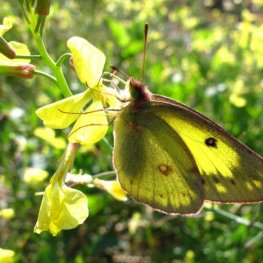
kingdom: Animalia
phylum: Arthropoda
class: Insecta
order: Lepidoptera
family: Pieridae
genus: Colias
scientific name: Colias philodice
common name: Clouded Sulphur
